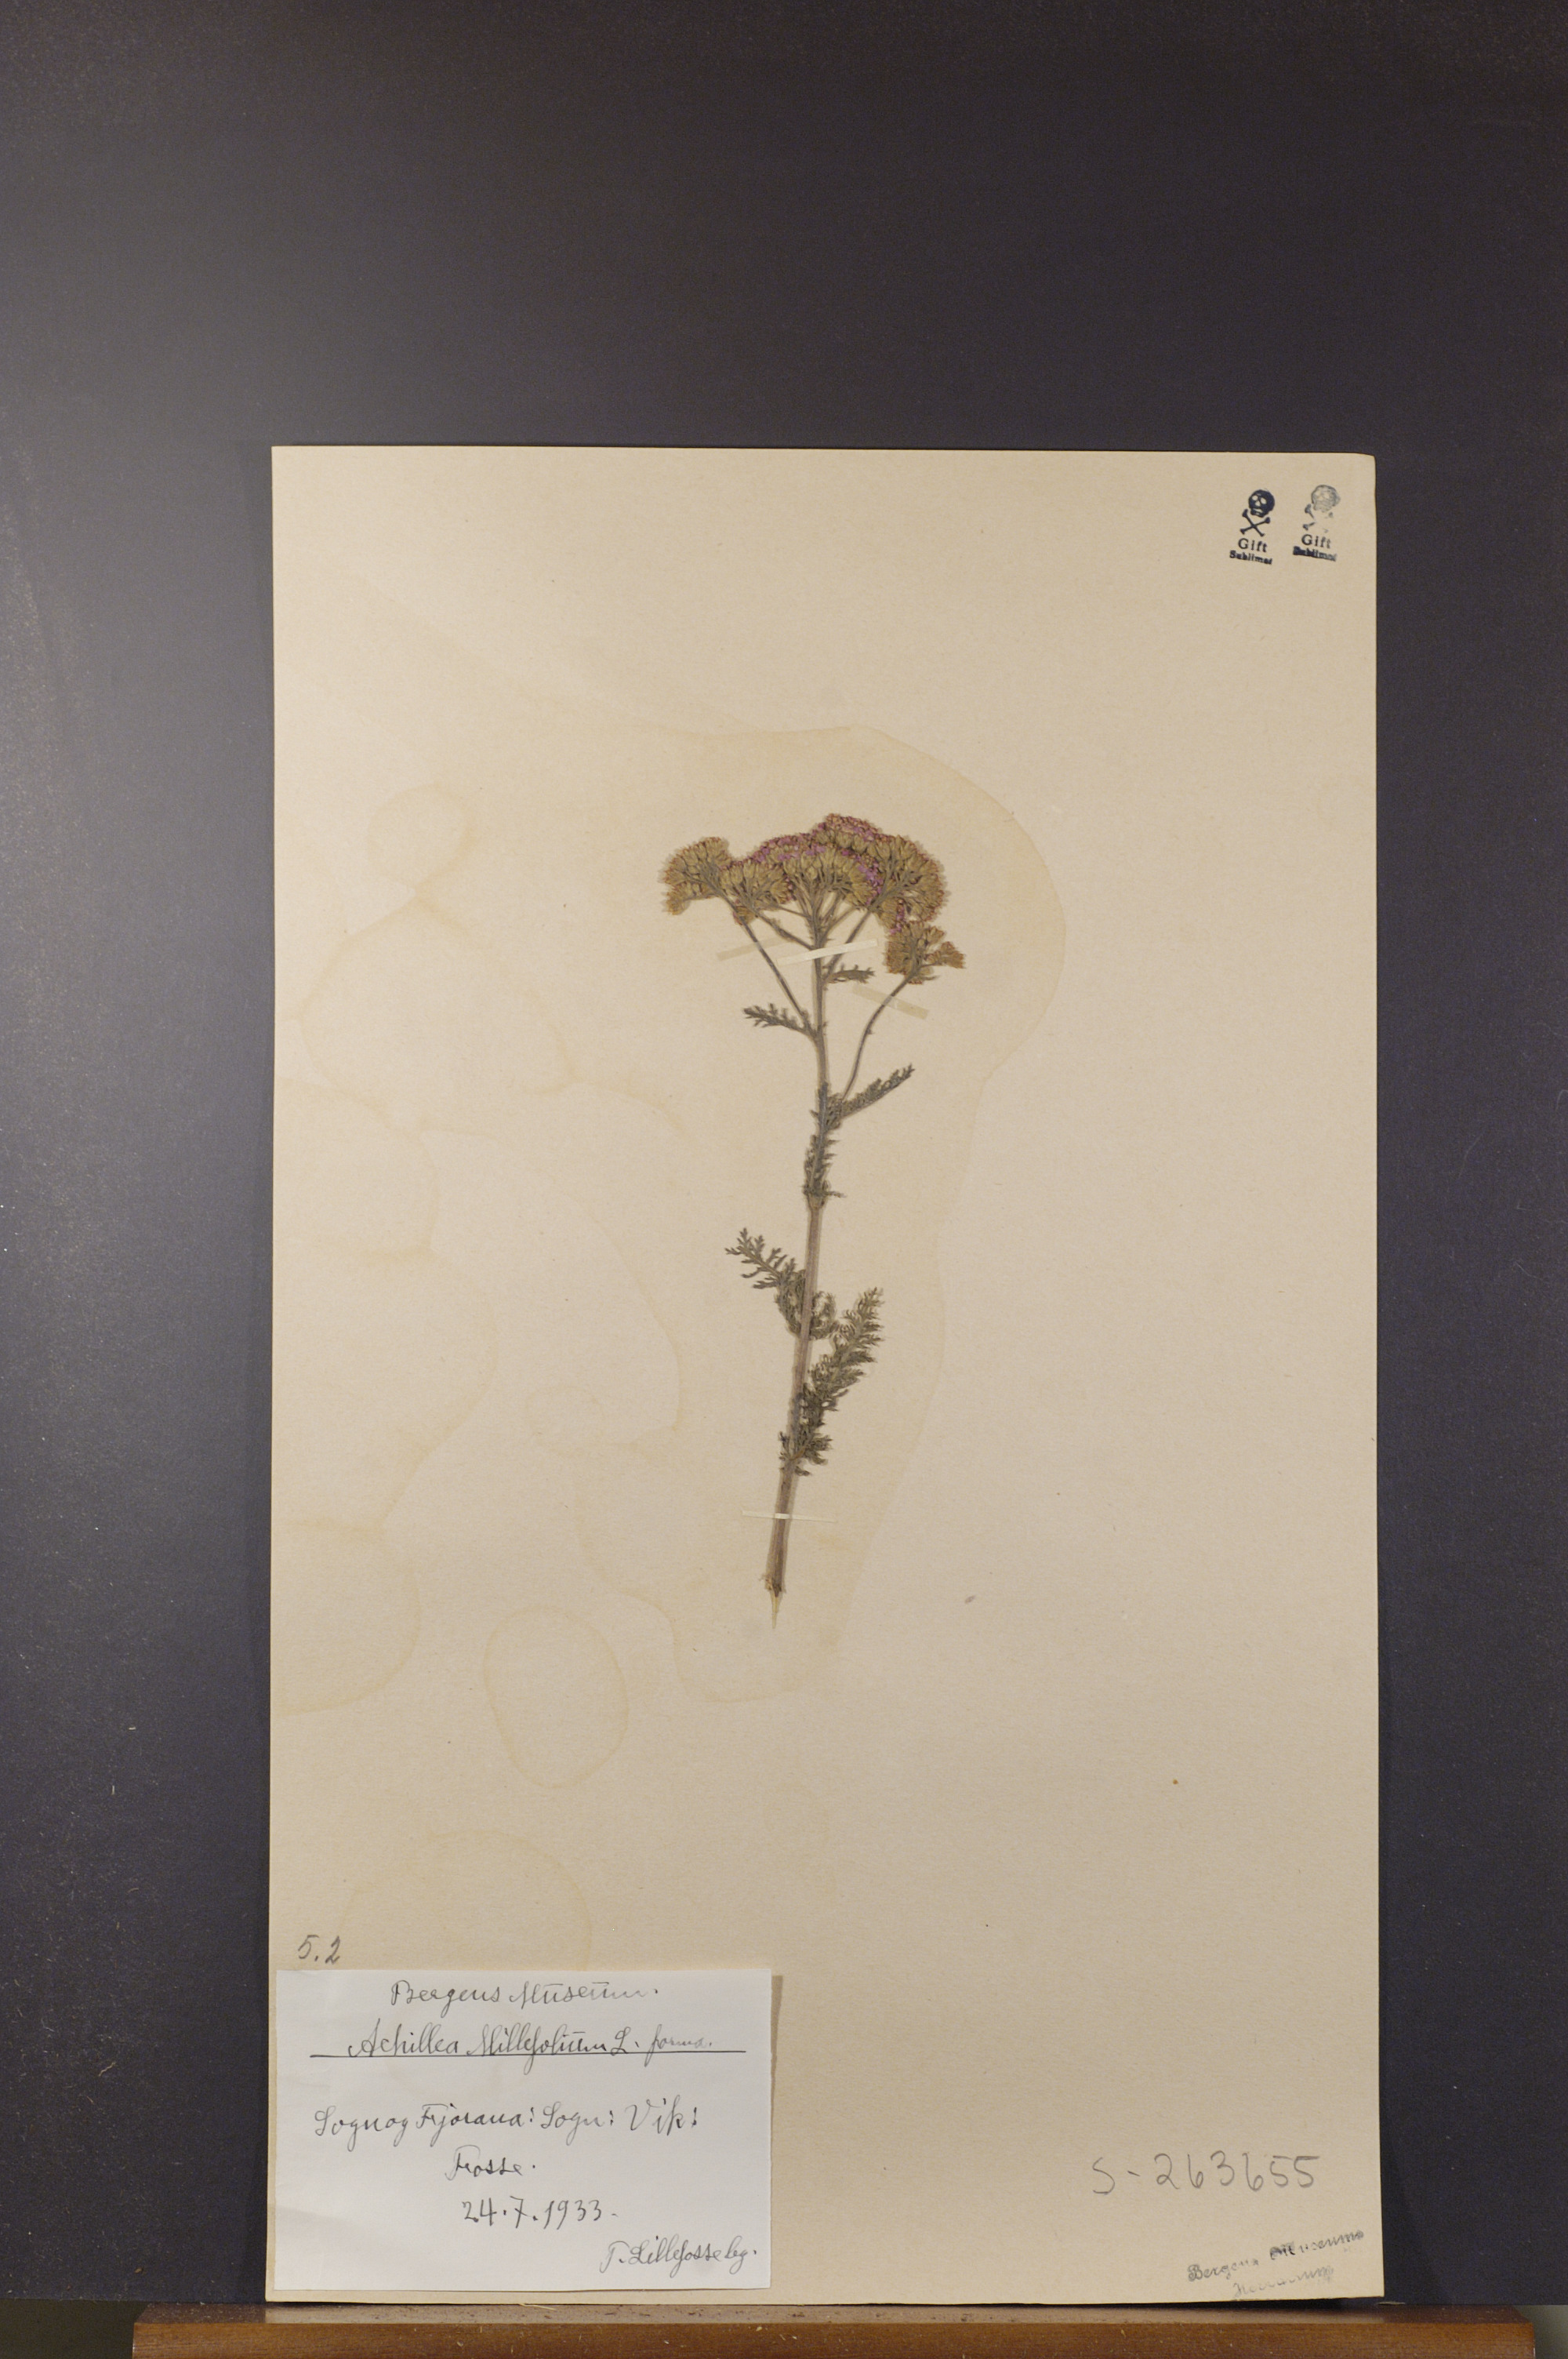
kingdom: Plantae
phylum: Tracheophyta
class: Magnoliopsida
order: Asterales
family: Asteraceae
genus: Achillea
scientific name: Achillea millefolium
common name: Yarrow
